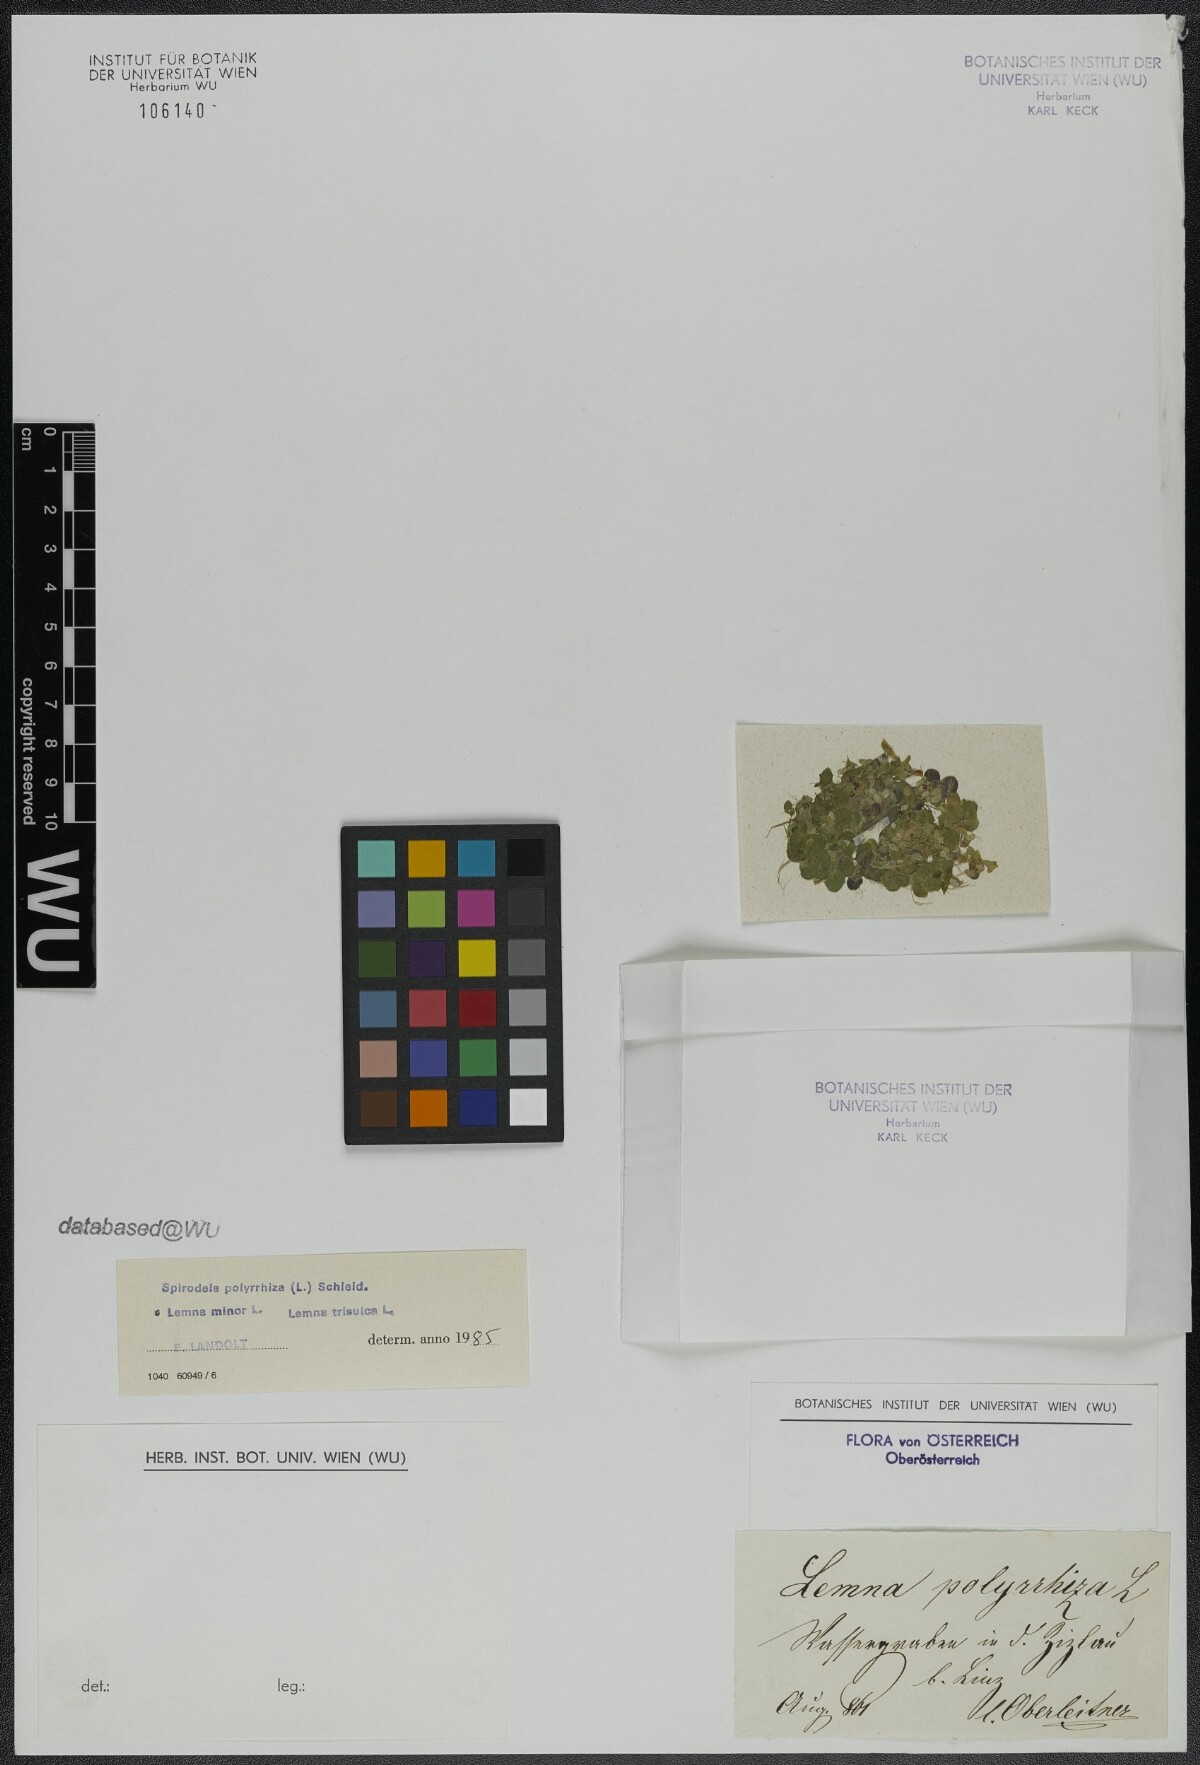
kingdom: Plantae
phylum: Tracheophyta
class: Liliopsida
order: Alismatales
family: Araceae
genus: Lemna
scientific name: Lemna minor
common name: Common duckweed
